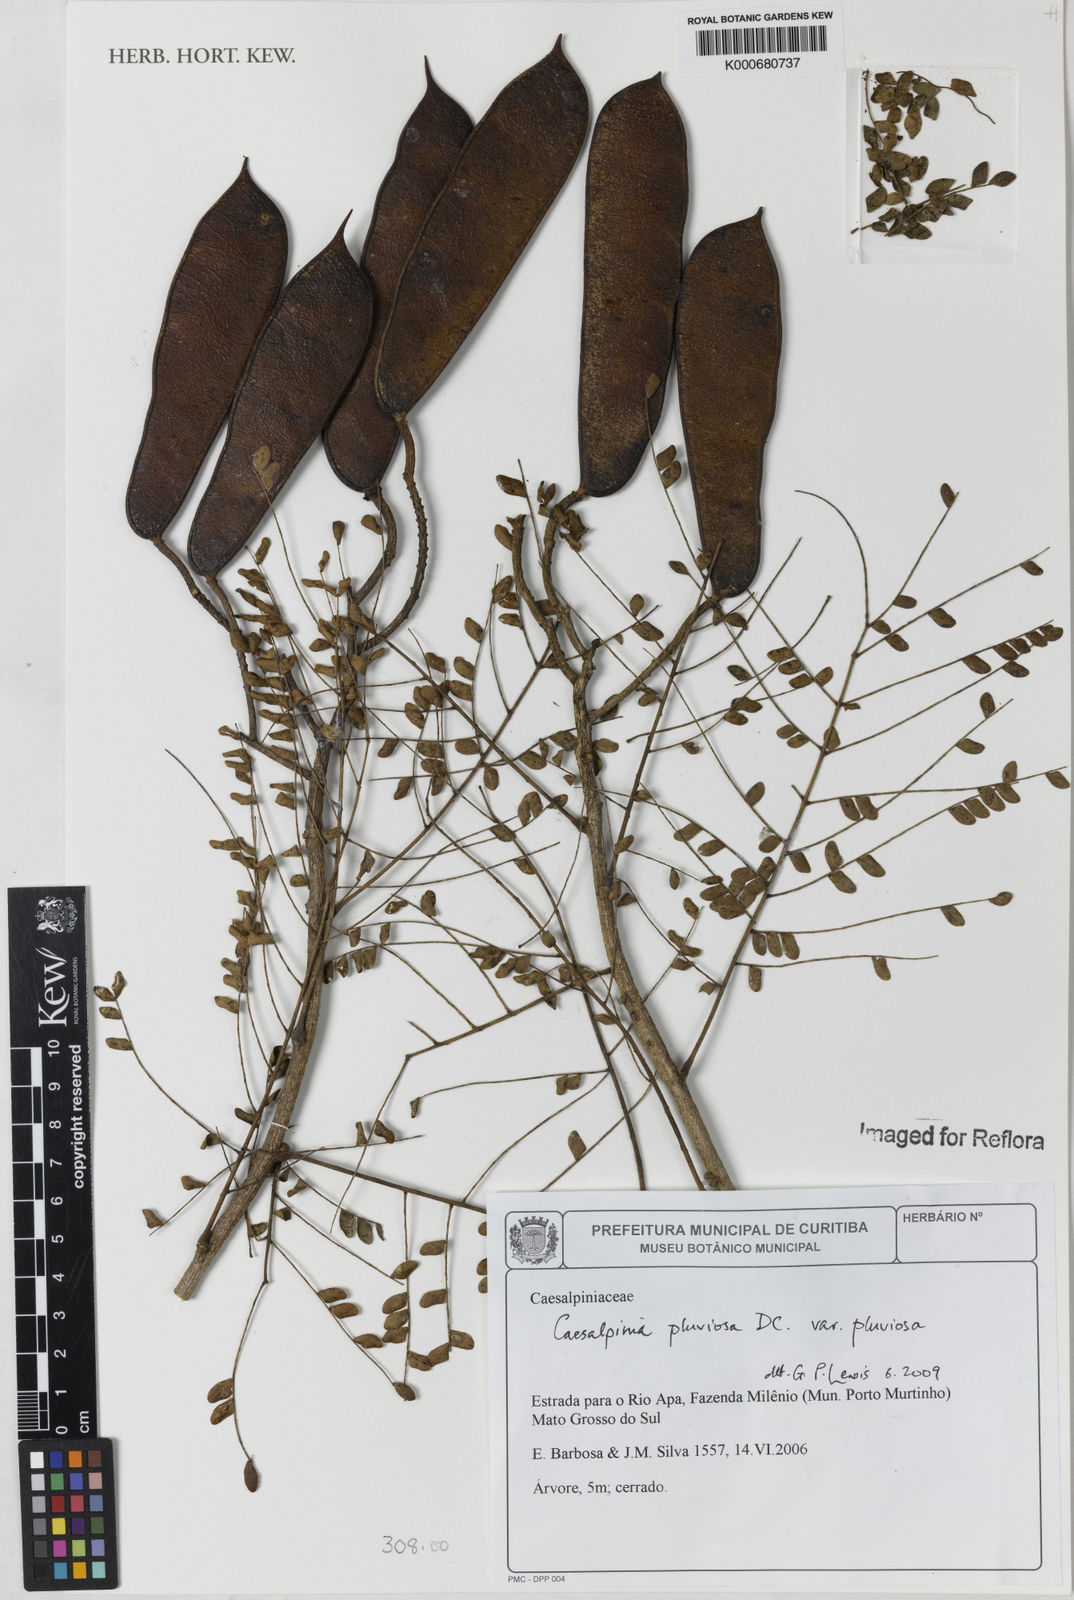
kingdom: Plantae
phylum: Tracheophyta
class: Magnoliopsida
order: Fabales
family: Fabaceae
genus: Cenostigma
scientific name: Cenostigma pluviosum
